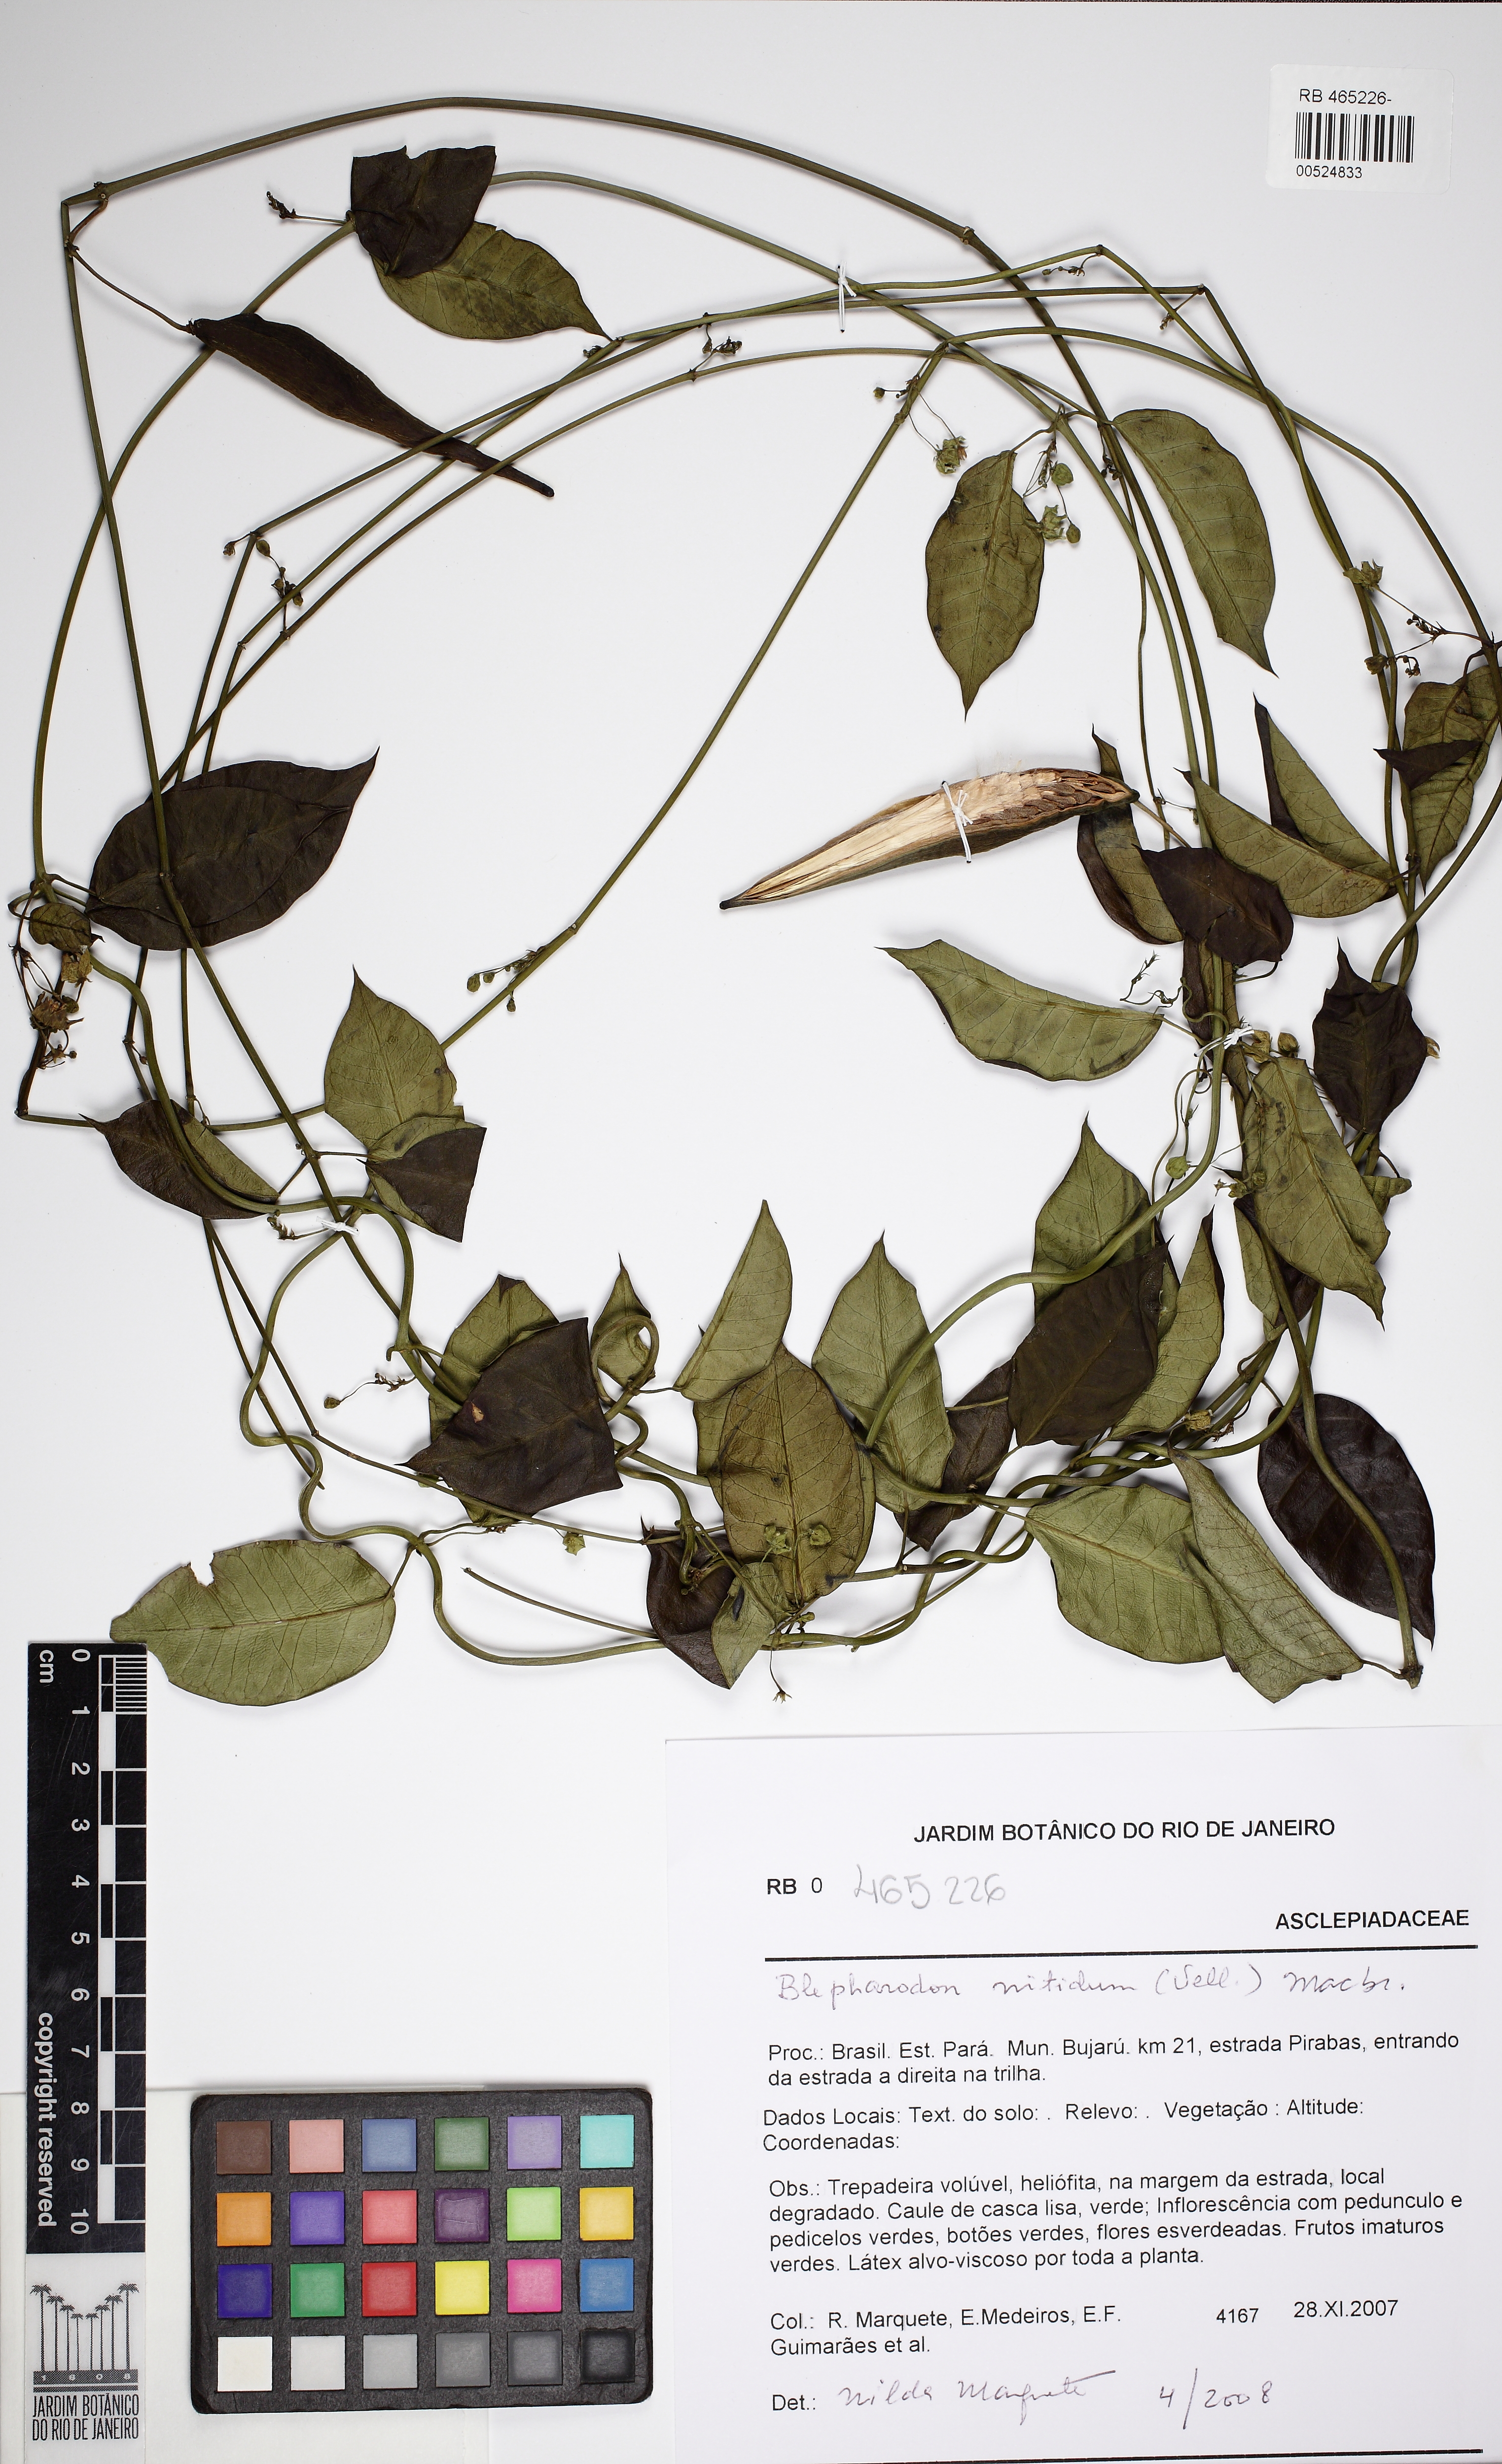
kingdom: Plantae
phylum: Tracheophyta
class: Magnoliopsida
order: Gentianales
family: Apocynaceae
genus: Blepharodon
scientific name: Blepharodon pictum
